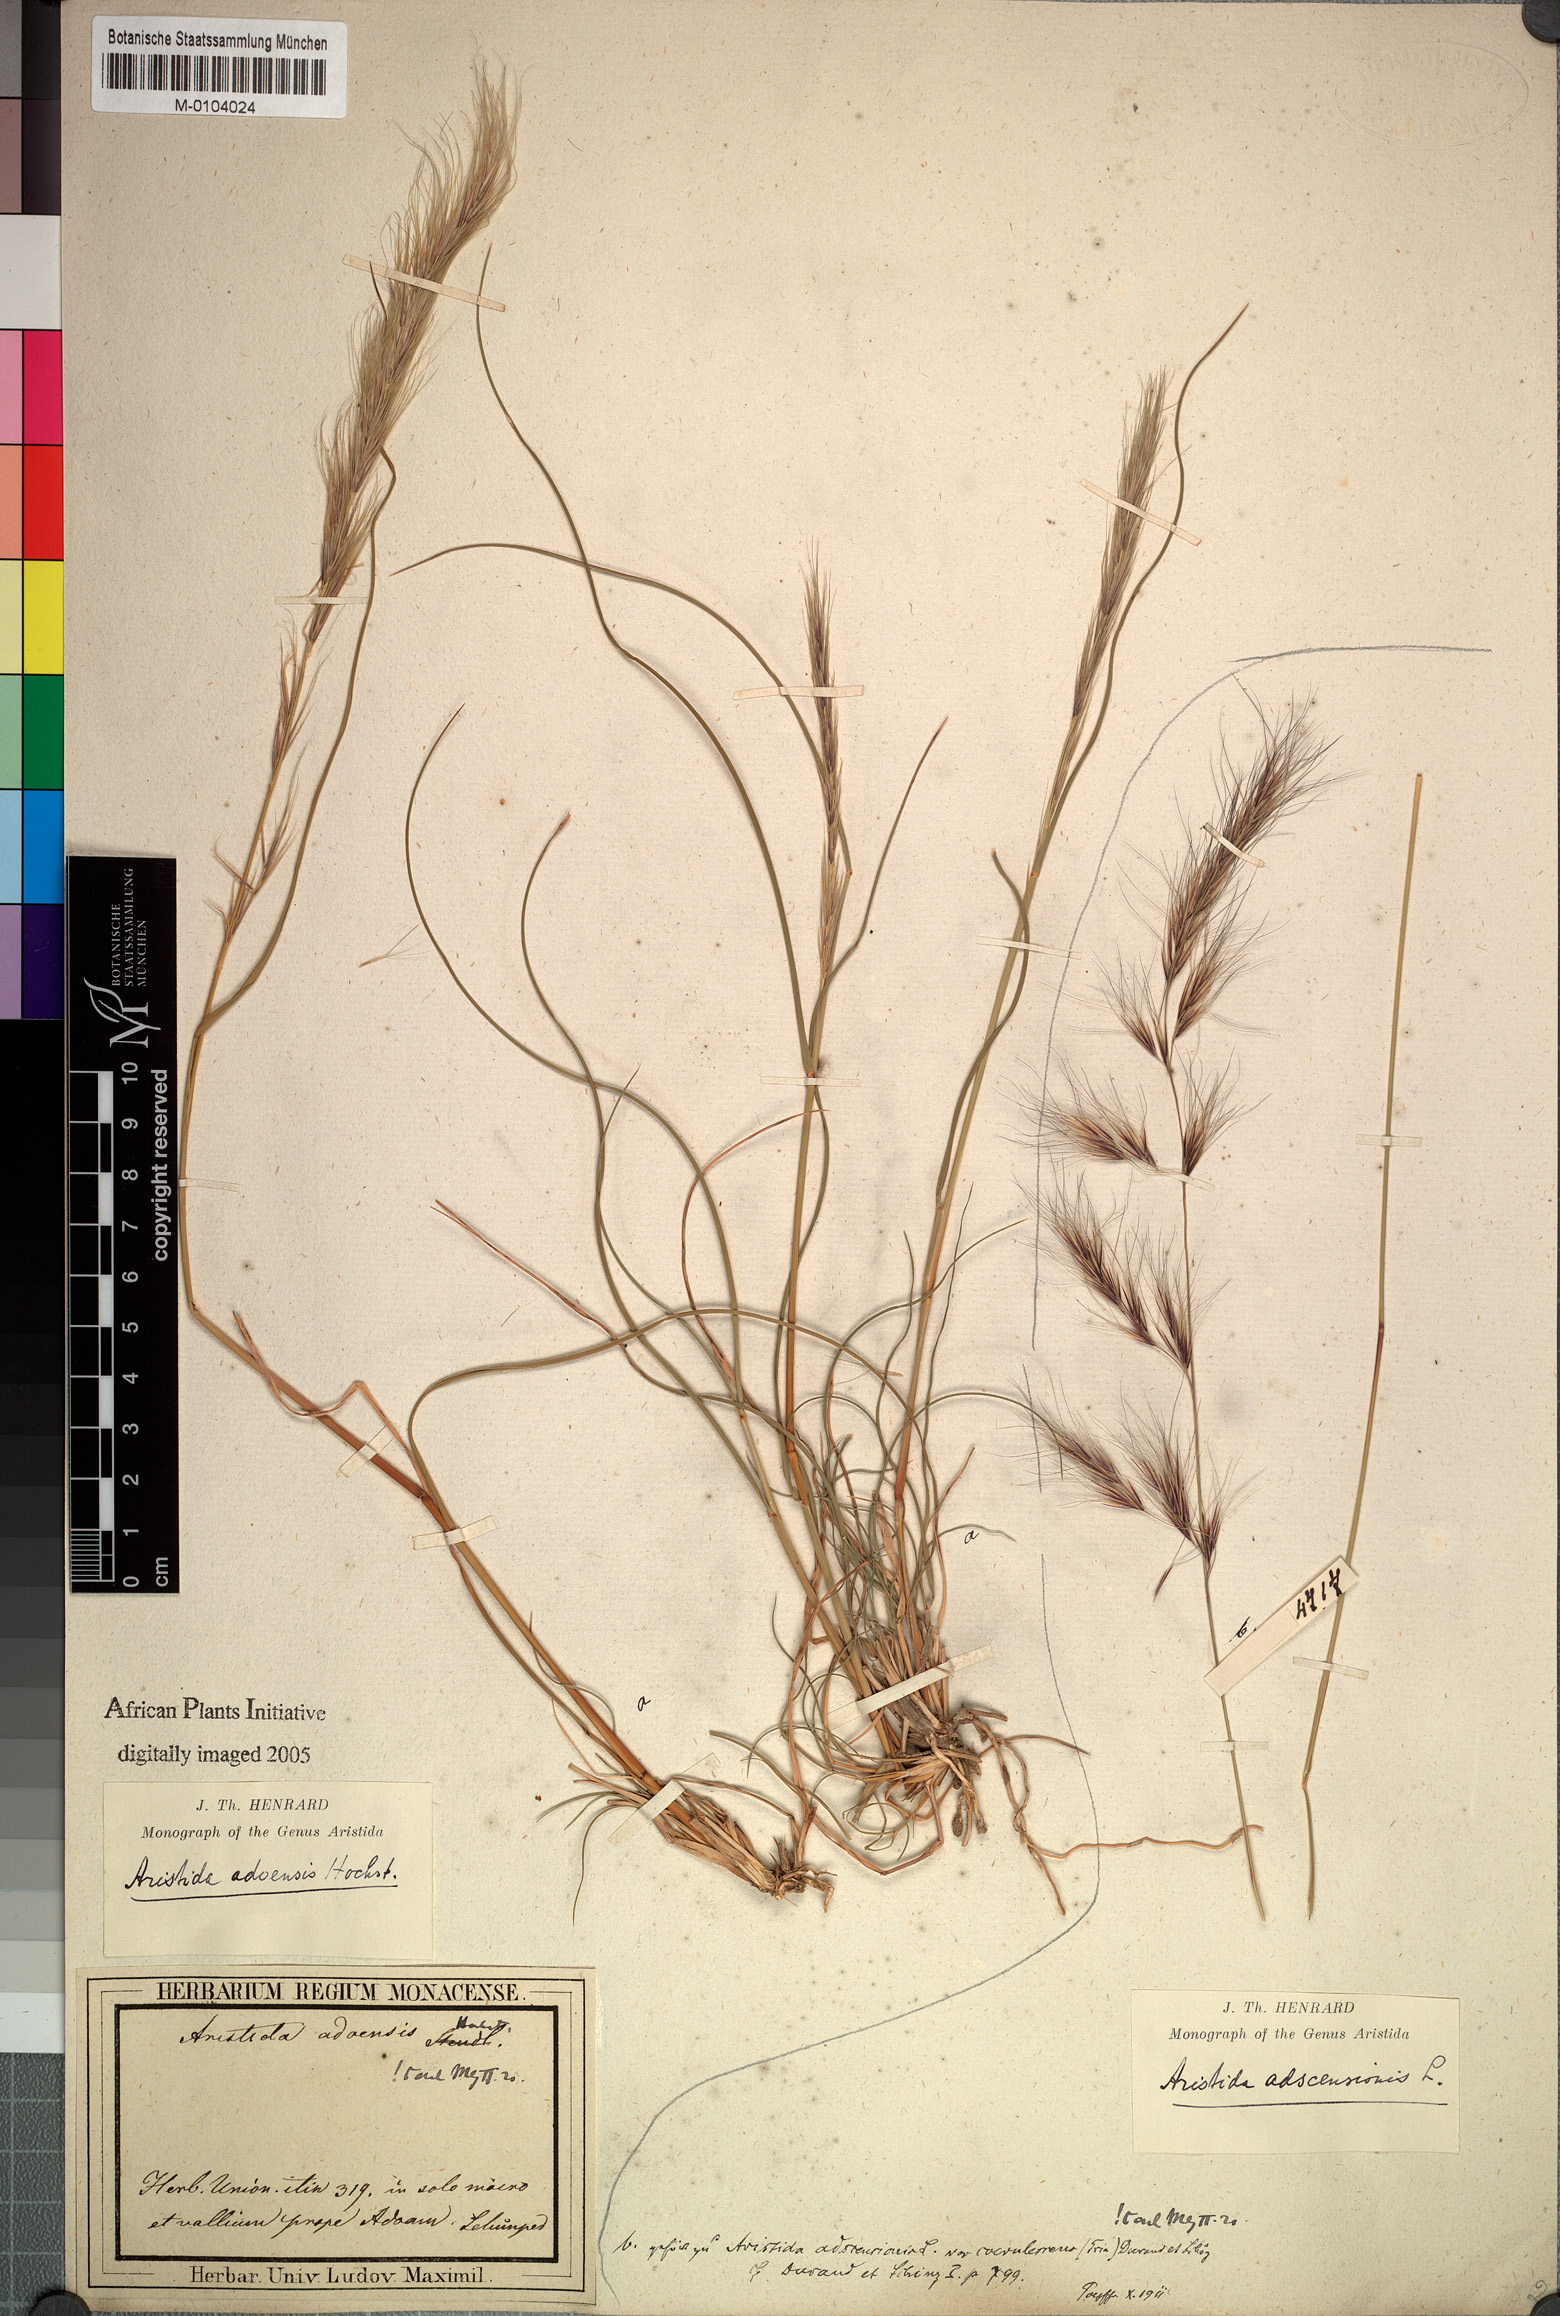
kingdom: Plantae
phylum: Tracheophyta
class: Liliopsida
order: Poales
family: Poaceae
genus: Aristida
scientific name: Aristida adoensis
